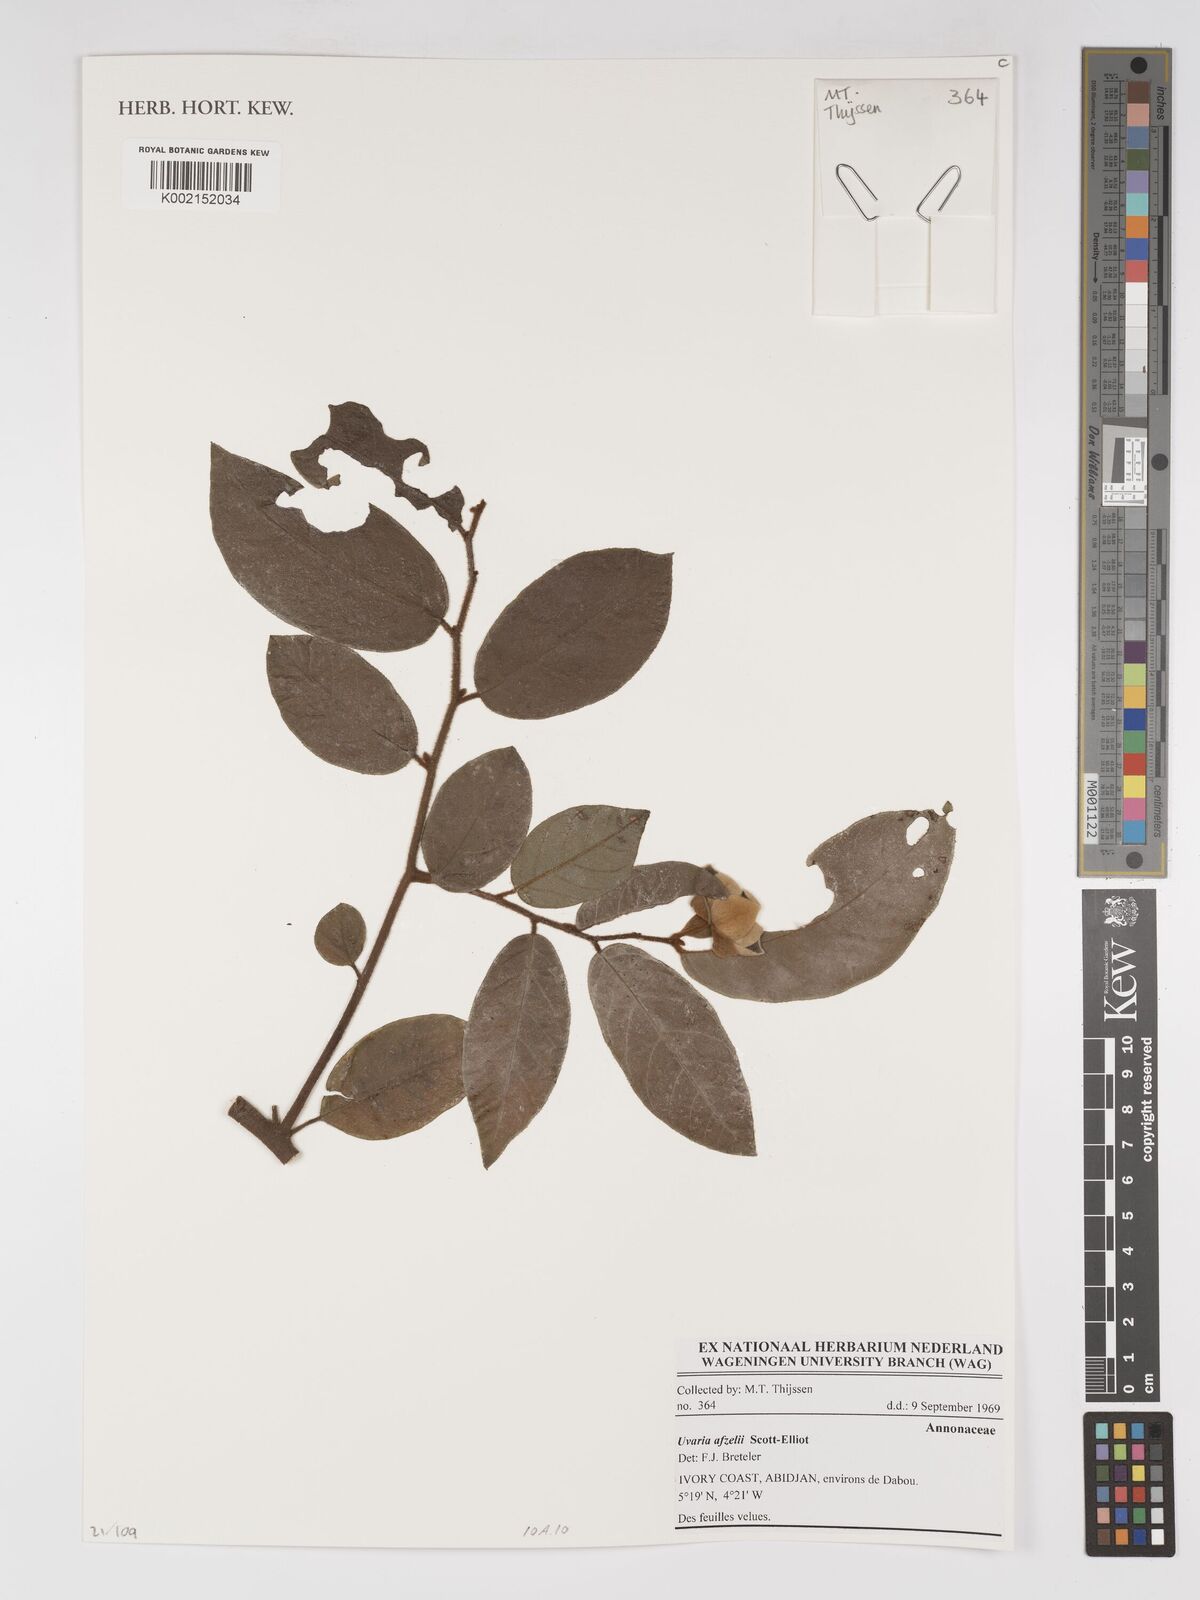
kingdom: Plantae
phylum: Tracheophyta
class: Magnoliopsida
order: Magnoliales
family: Annonaceae
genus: Uvaria
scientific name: Uvaria afzelii
